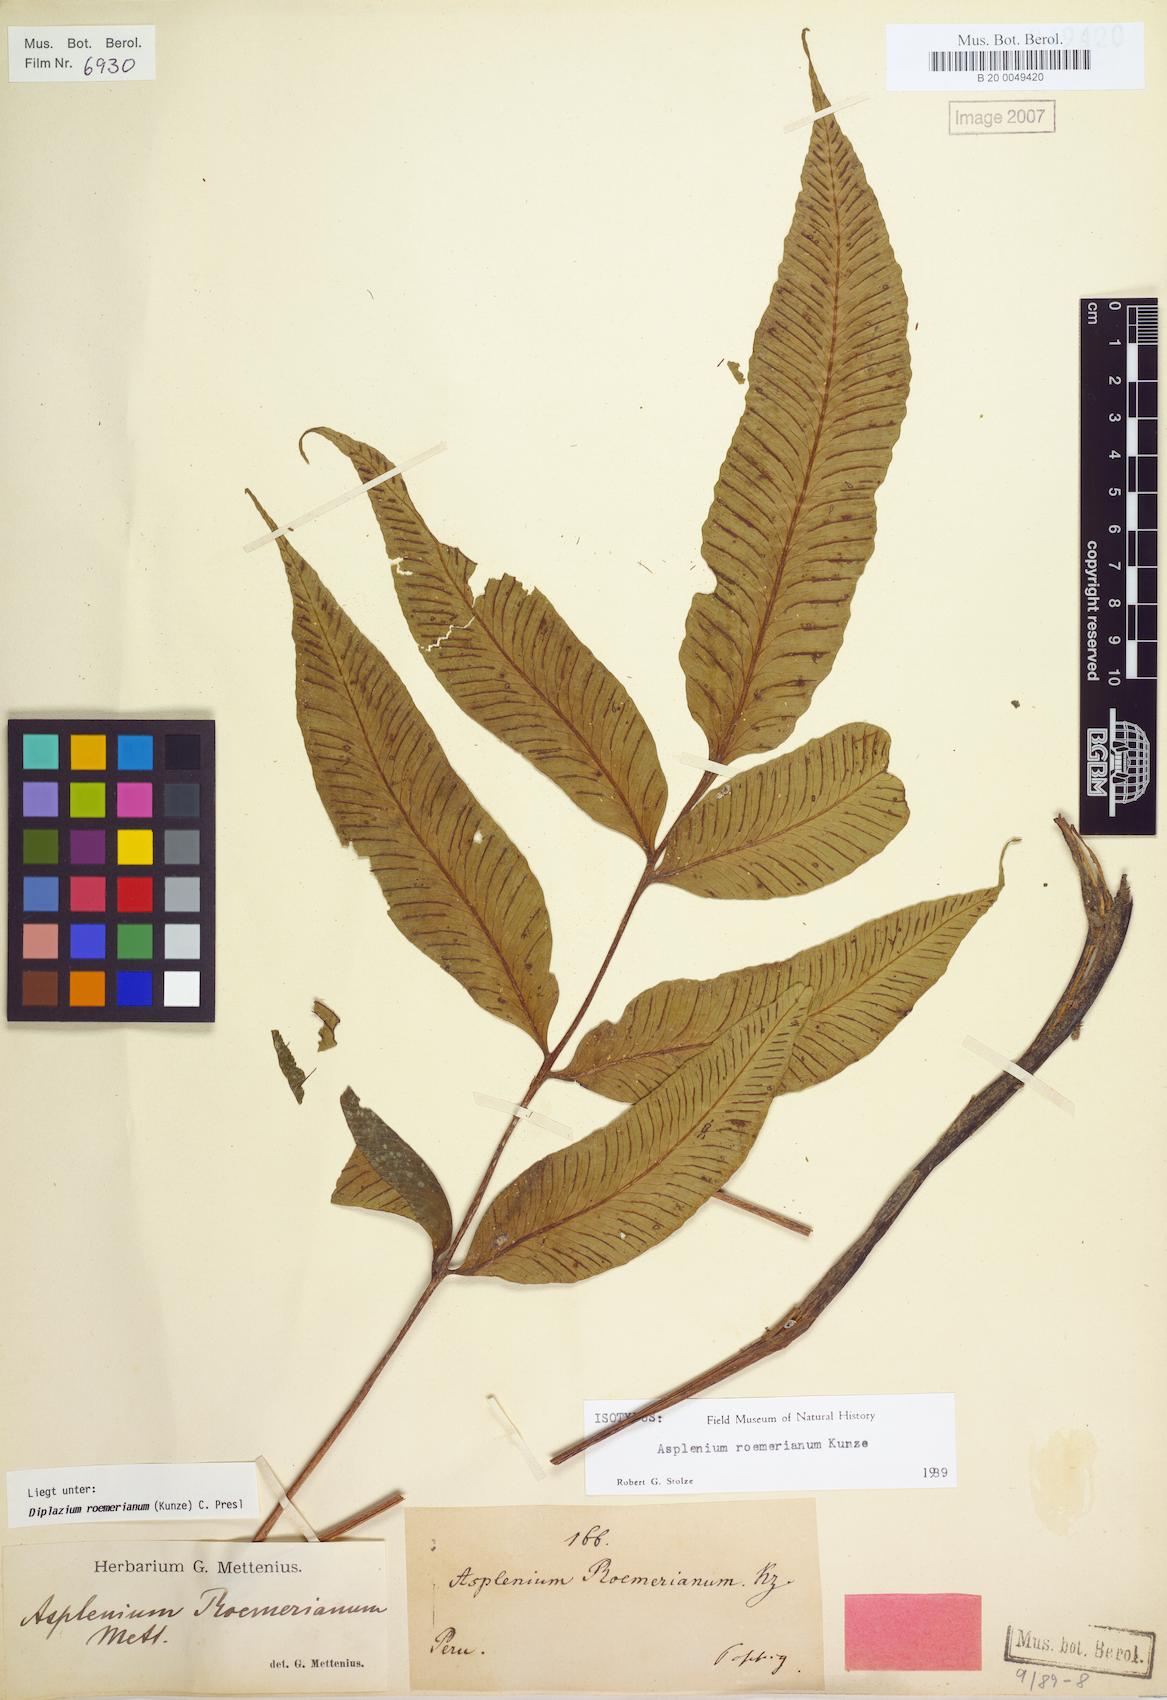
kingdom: Plantae
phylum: Tracheophyta
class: Polypodiopsida
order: Polypodiales
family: Athyriaceae
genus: Diplazium
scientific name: Diplazium roemerianum
